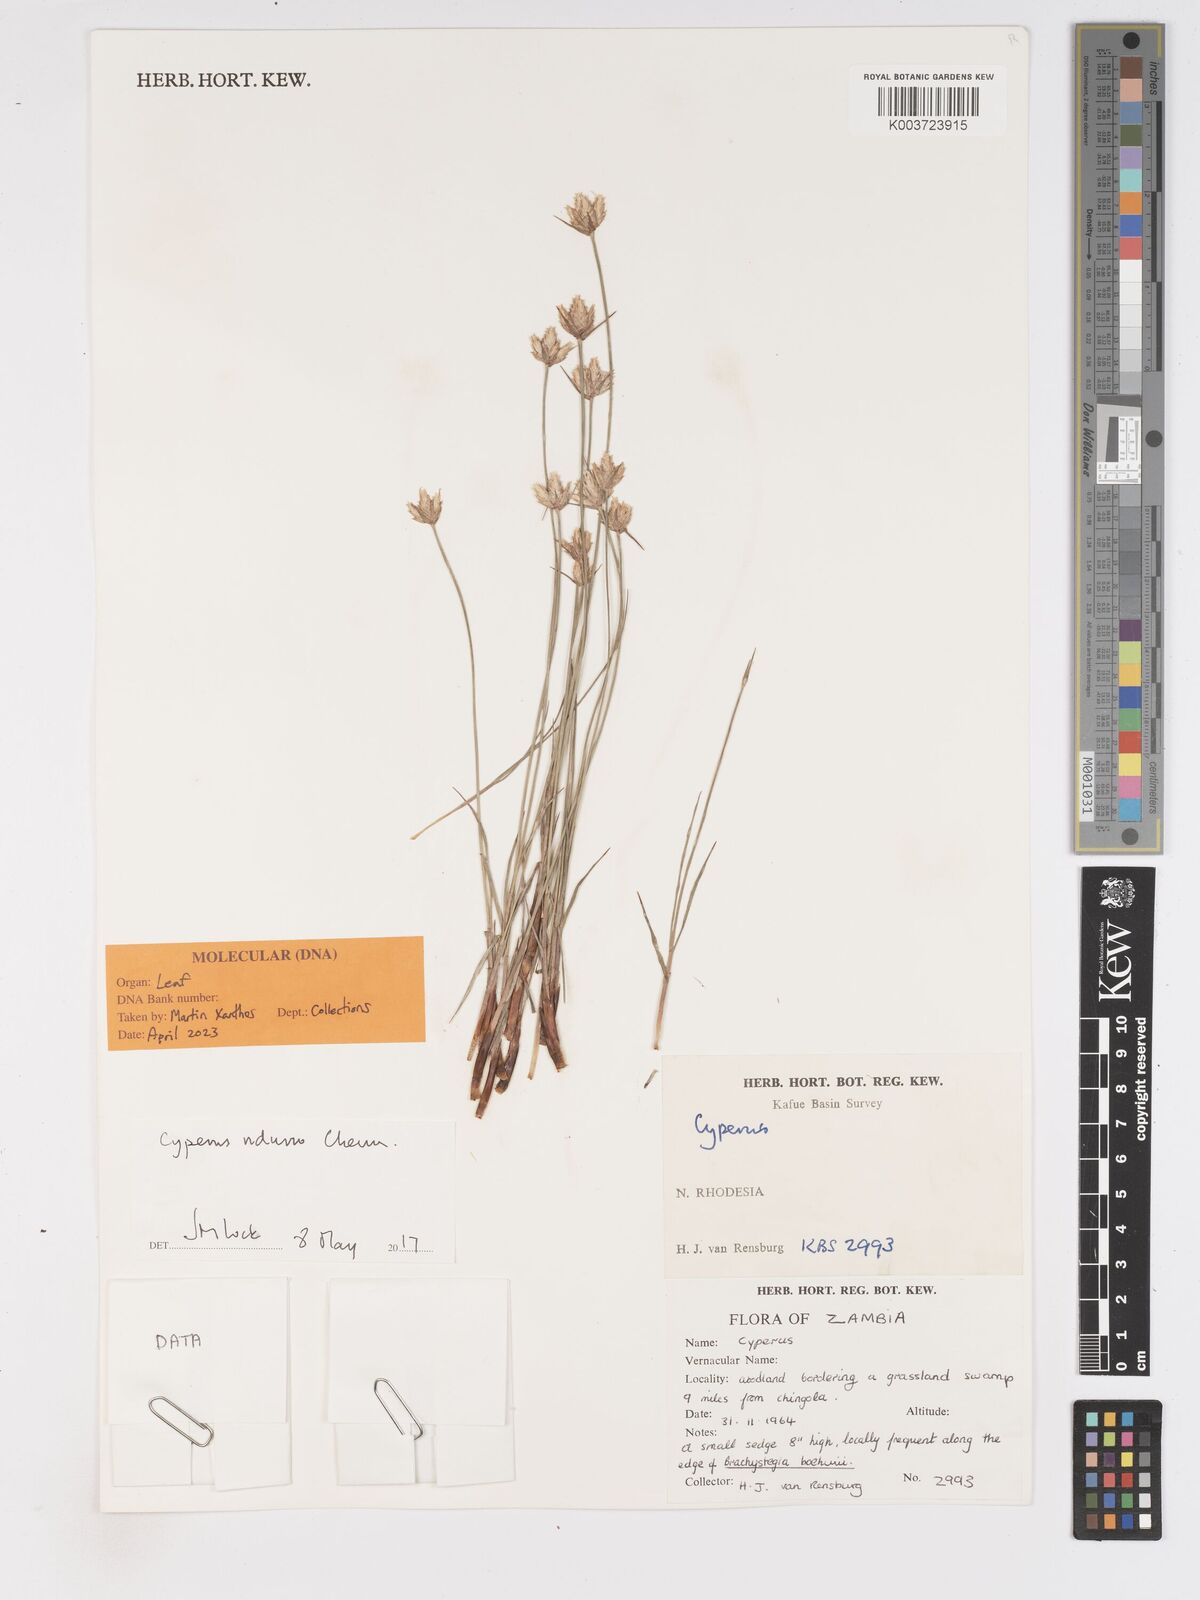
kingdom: Plantae
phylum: Tracheophyta
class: Liliopsida
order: Poales
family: Cyperaceae
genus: Cyperus
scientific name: Cyperus nduru
